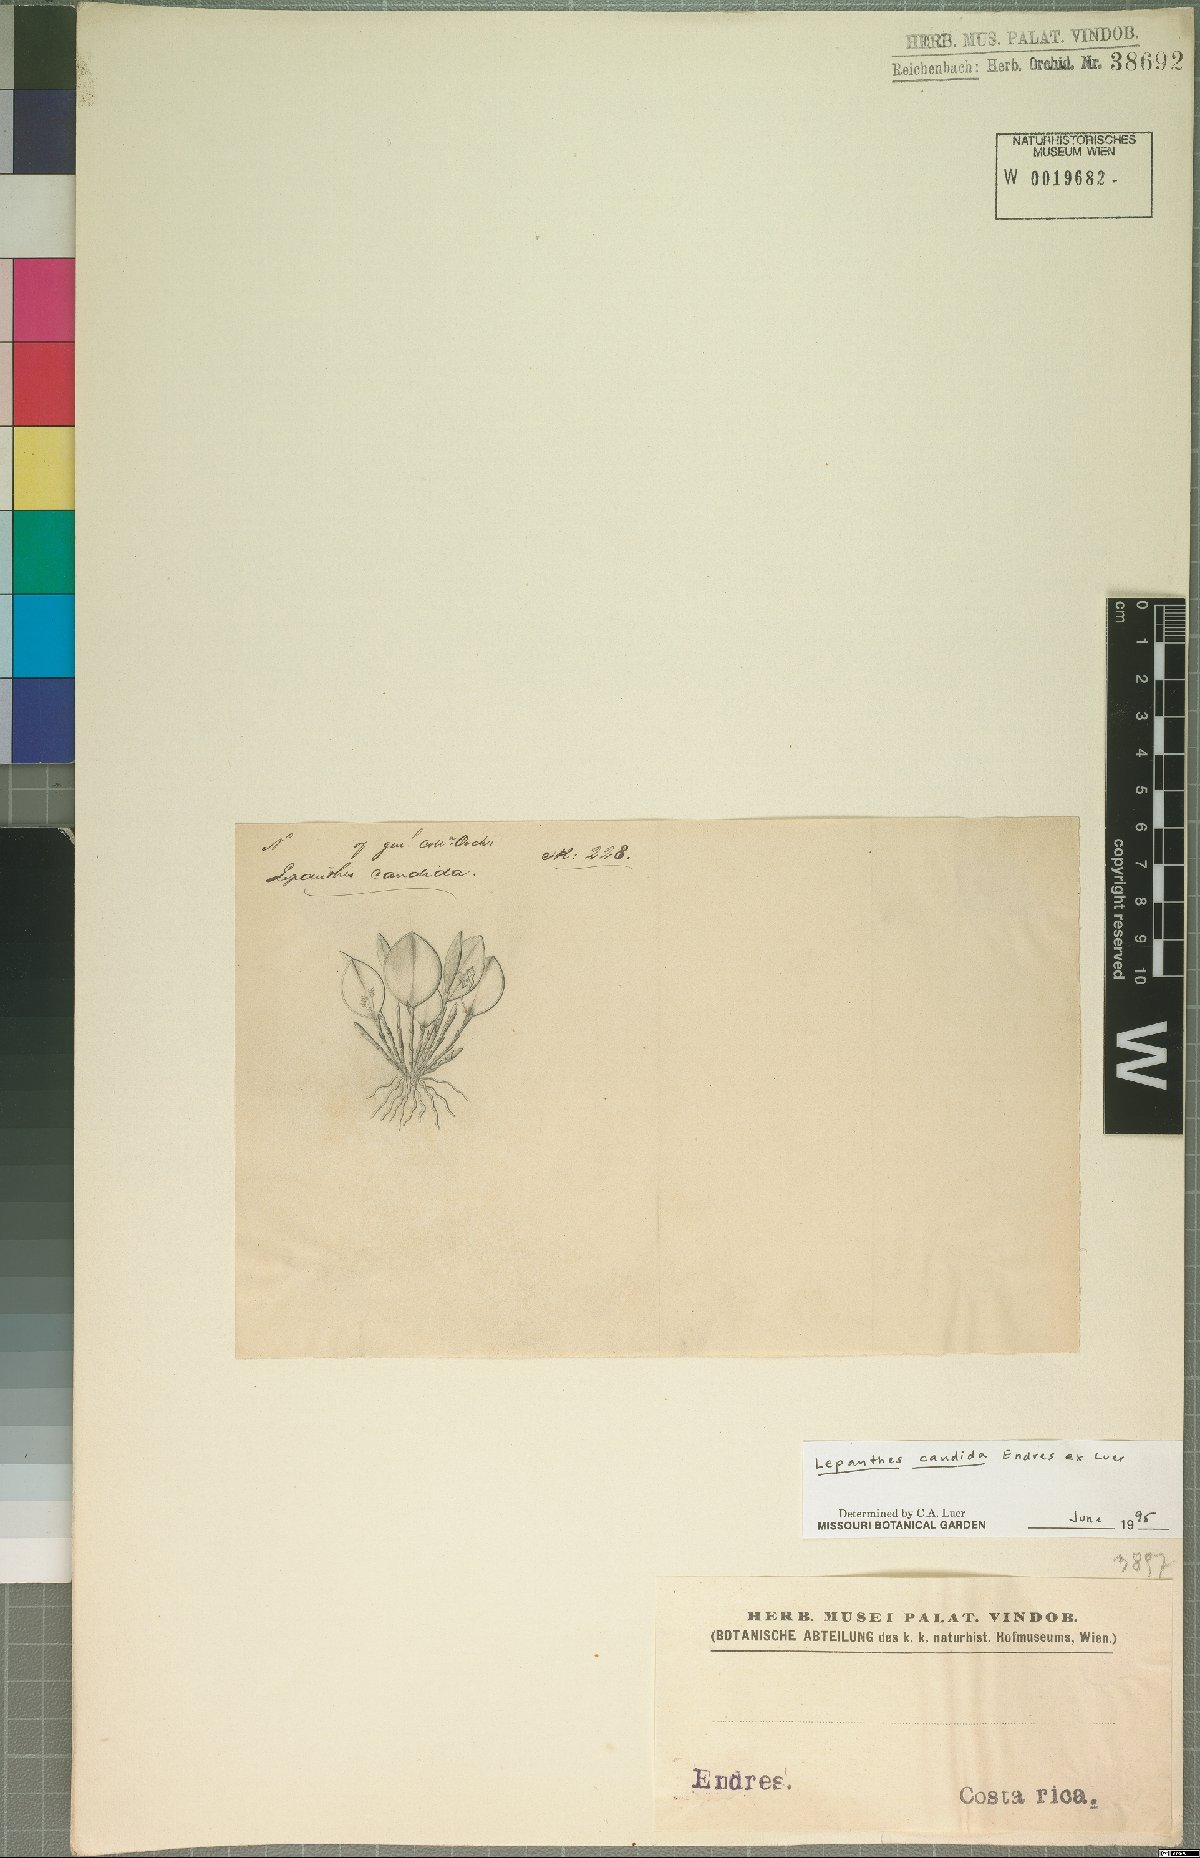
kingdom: Plantae
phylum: Tracheophyta
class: Liliopsida
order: Asparagales
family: Orchidaceae
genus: Lepanthes
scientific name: Lepanthes candida
